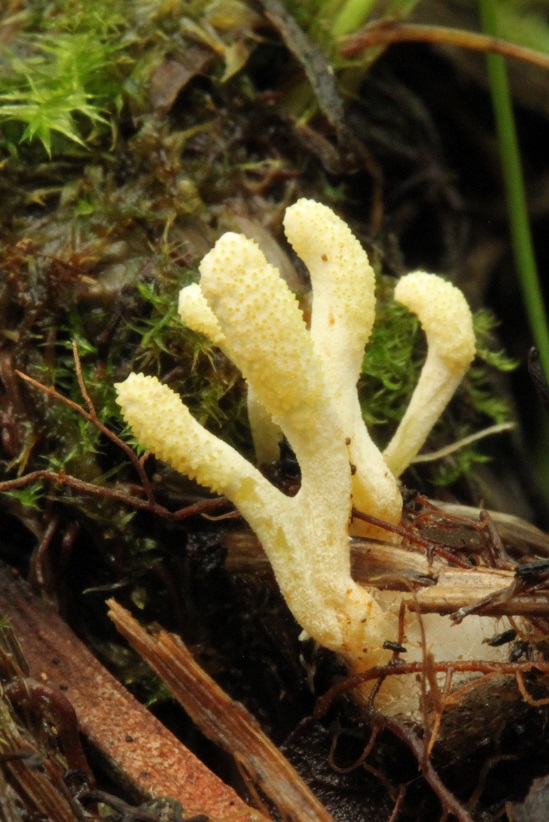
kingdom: Fungi
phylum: Ascomycota
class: Sordariomycetes
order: Hypocreales
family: Cordycipitaceae
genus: Cordyceps
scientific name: Cordyceps bifusispora
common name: bolasporet snyltekølle
